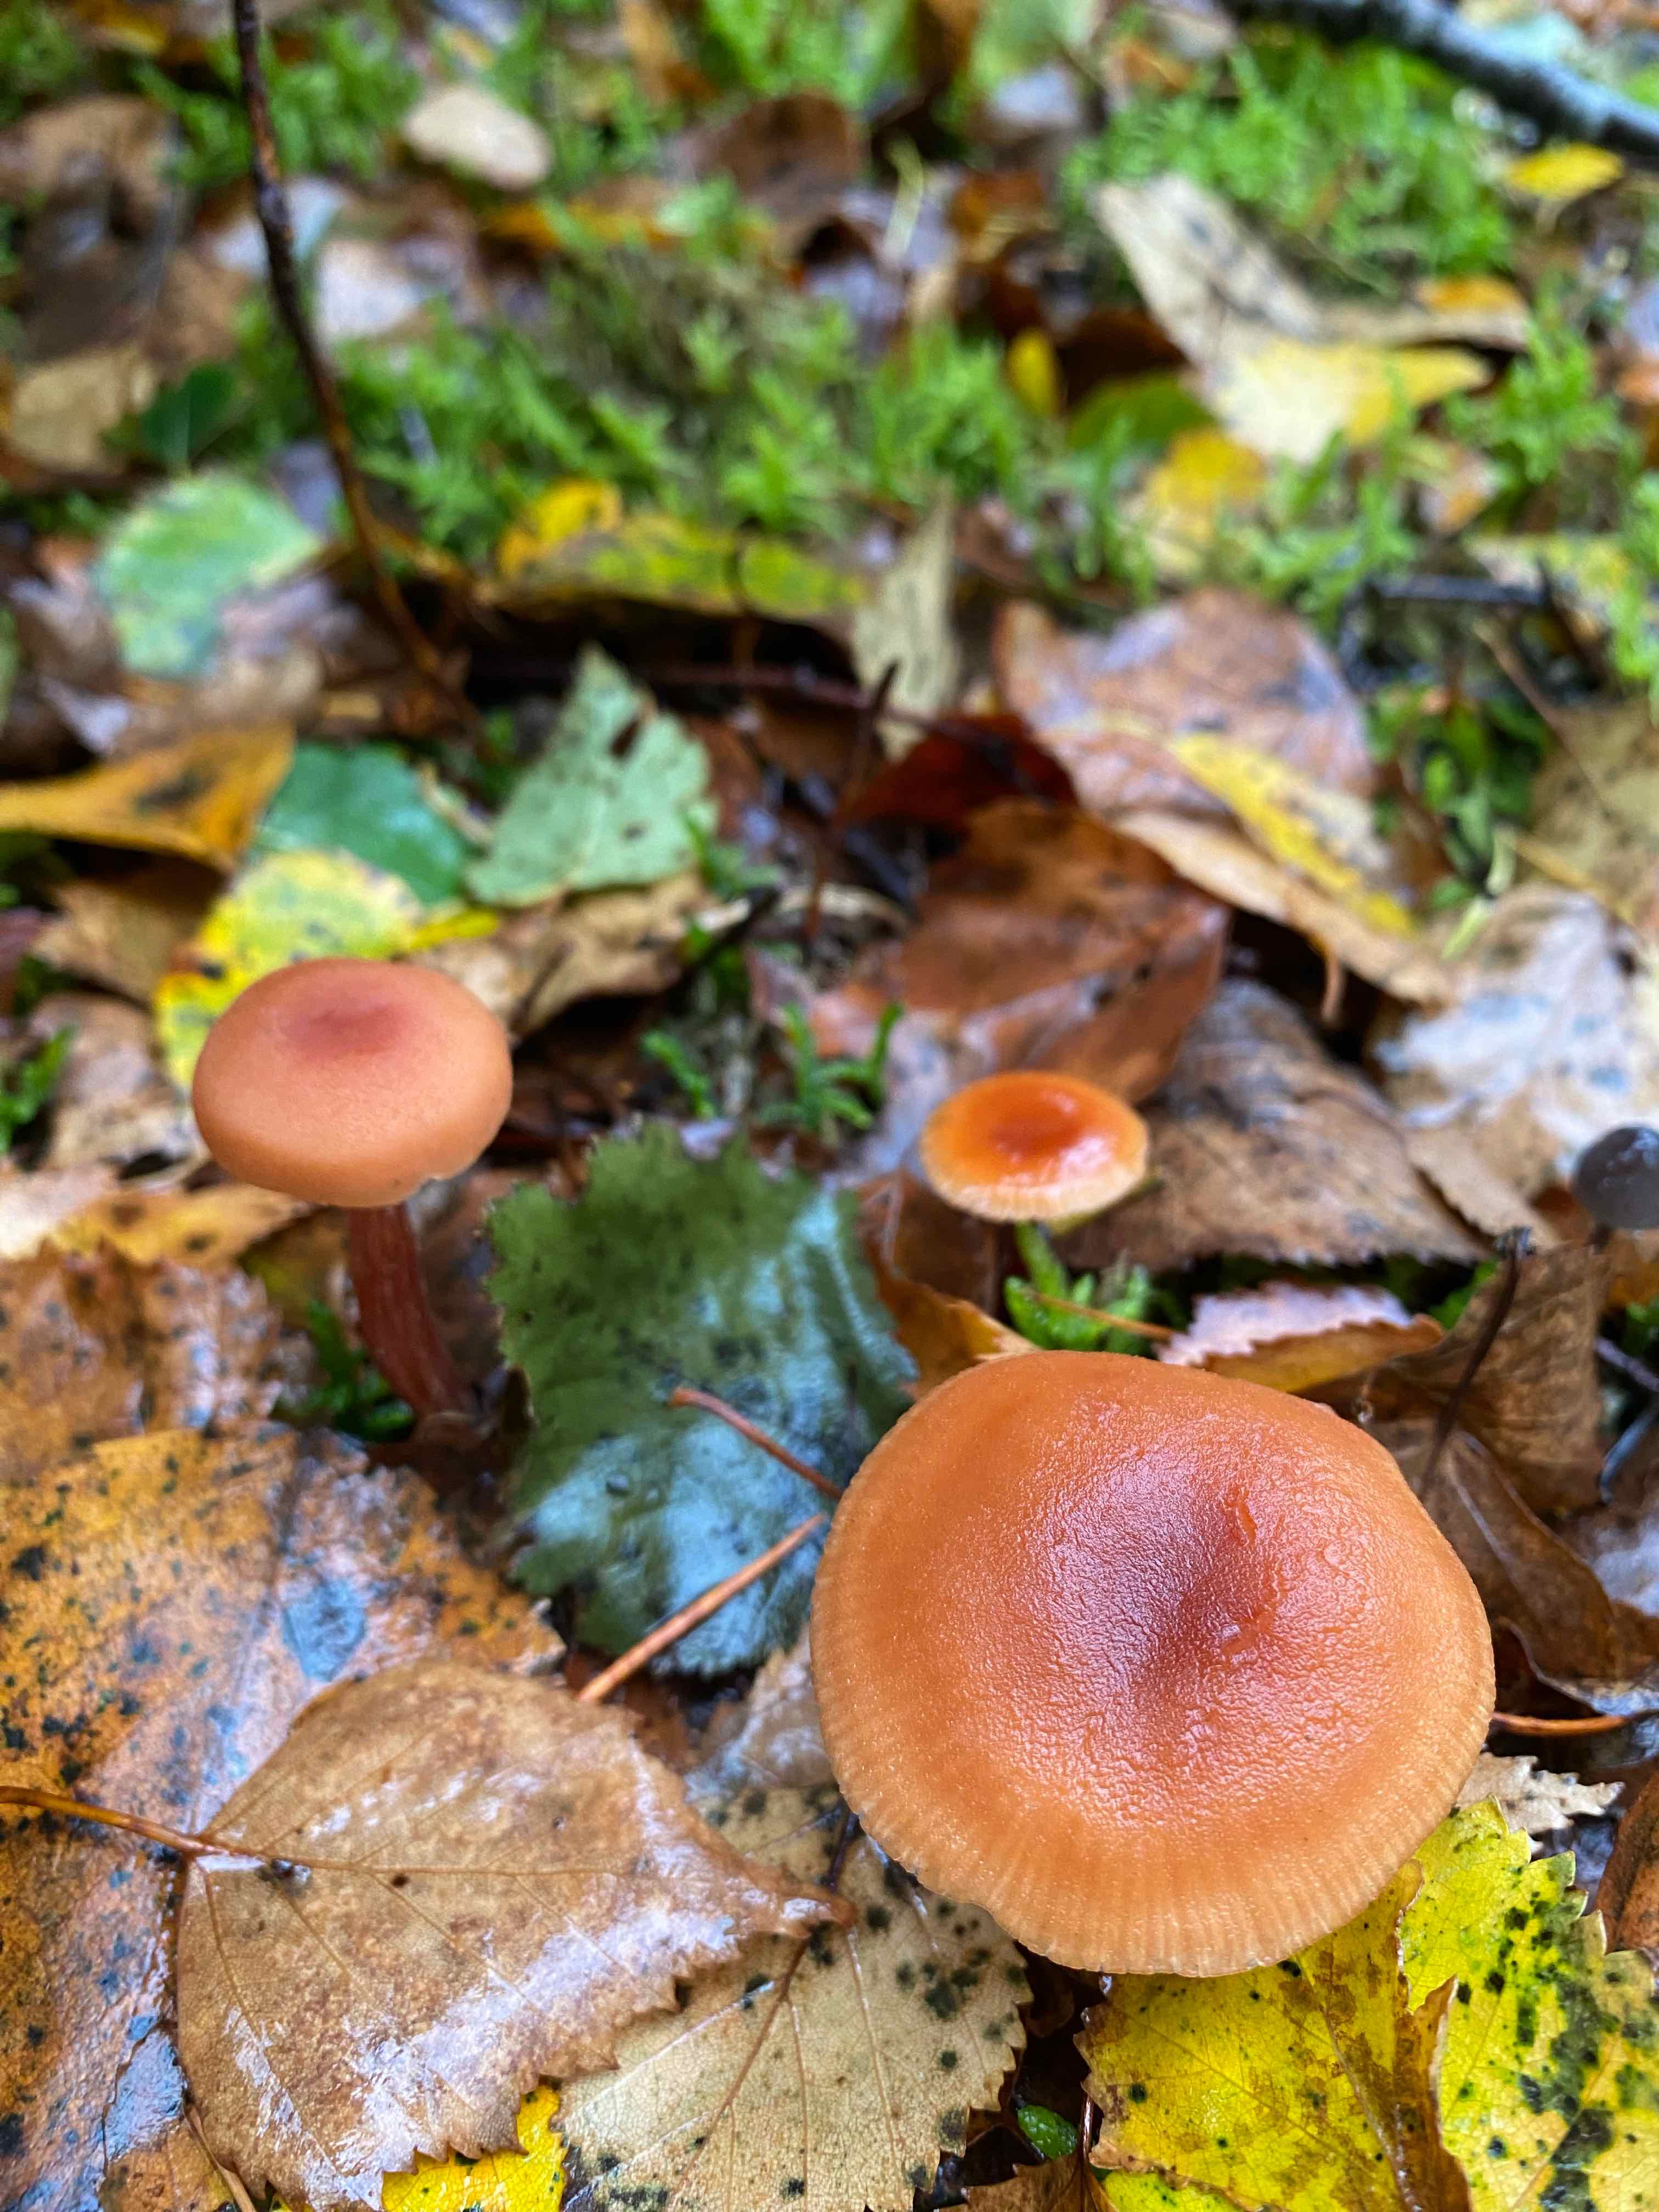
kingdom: Fungi
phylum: Basidiomycota
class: Agaricomycetes
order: Agaricales
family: Hydnangiaceae
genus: Laccaria
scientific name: Laccaria
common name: ametysthat
